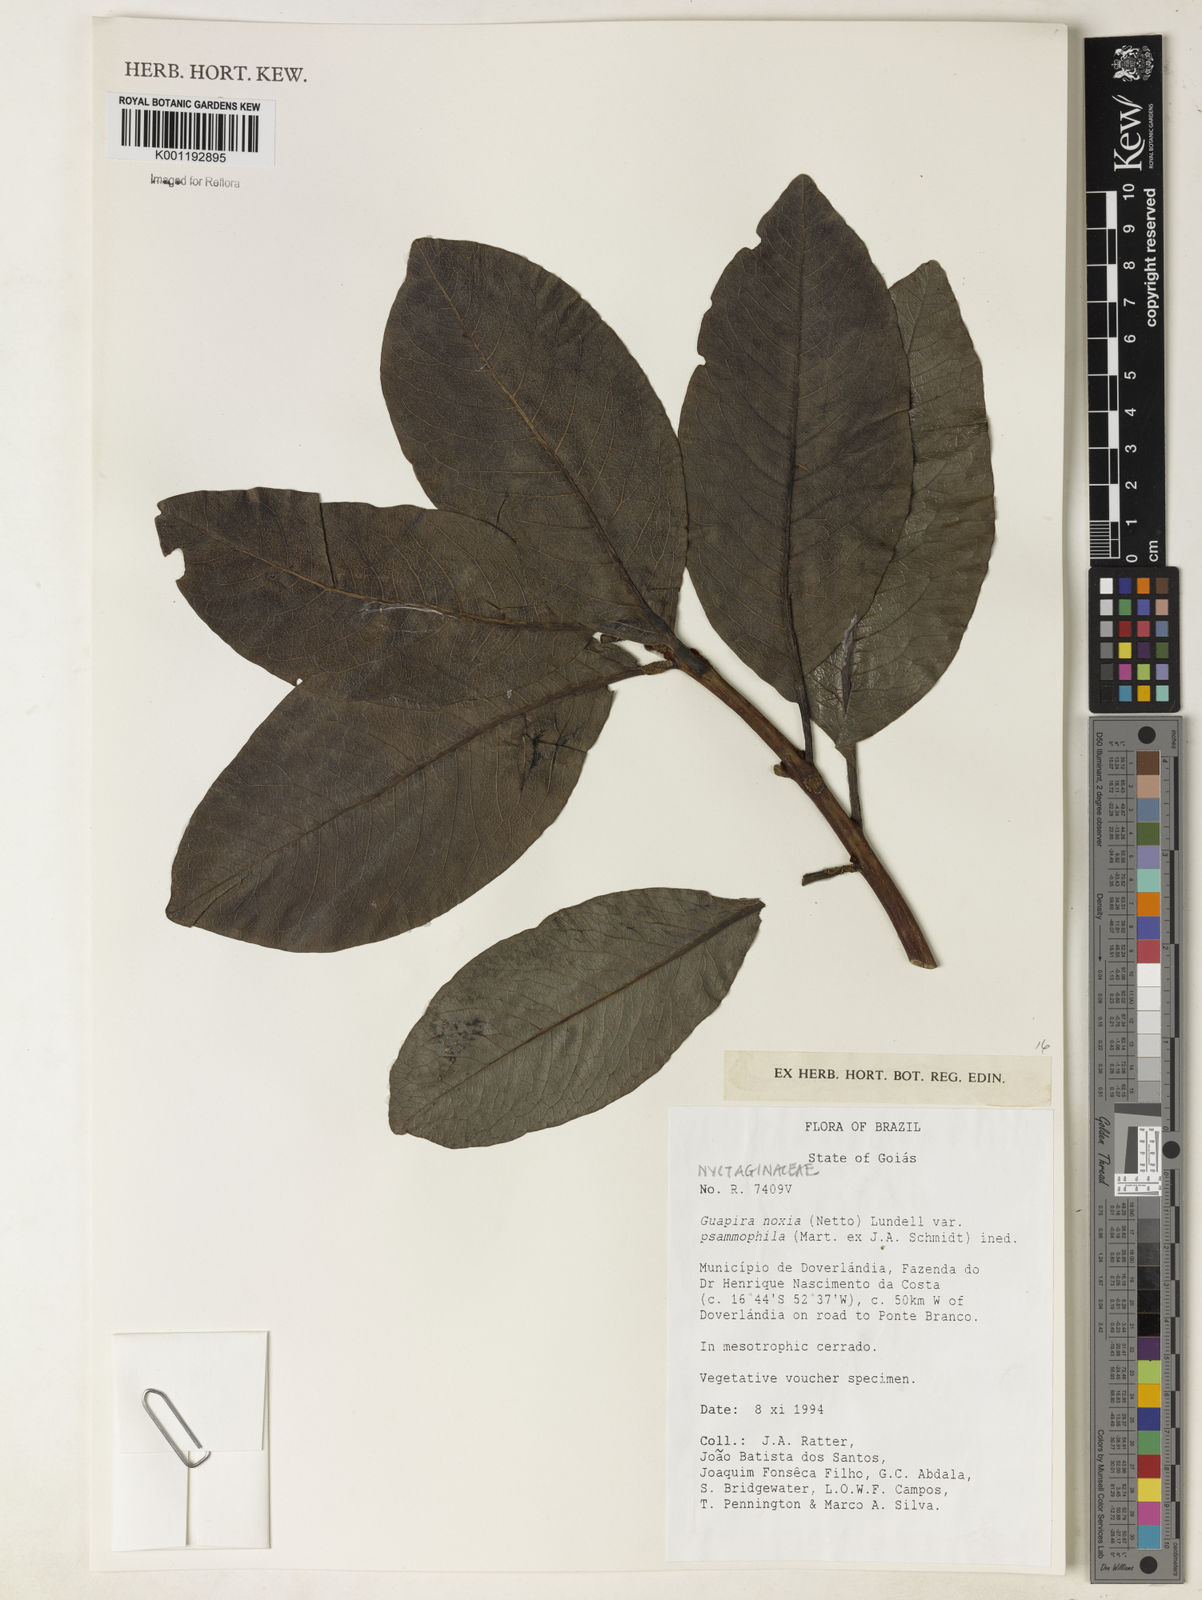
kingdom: Plantae
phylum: Tracheophyta
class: Magnoliopsida
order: Caryophyllales
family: Nyctaginaceae
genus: Guapira
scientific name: Guapira noxia
